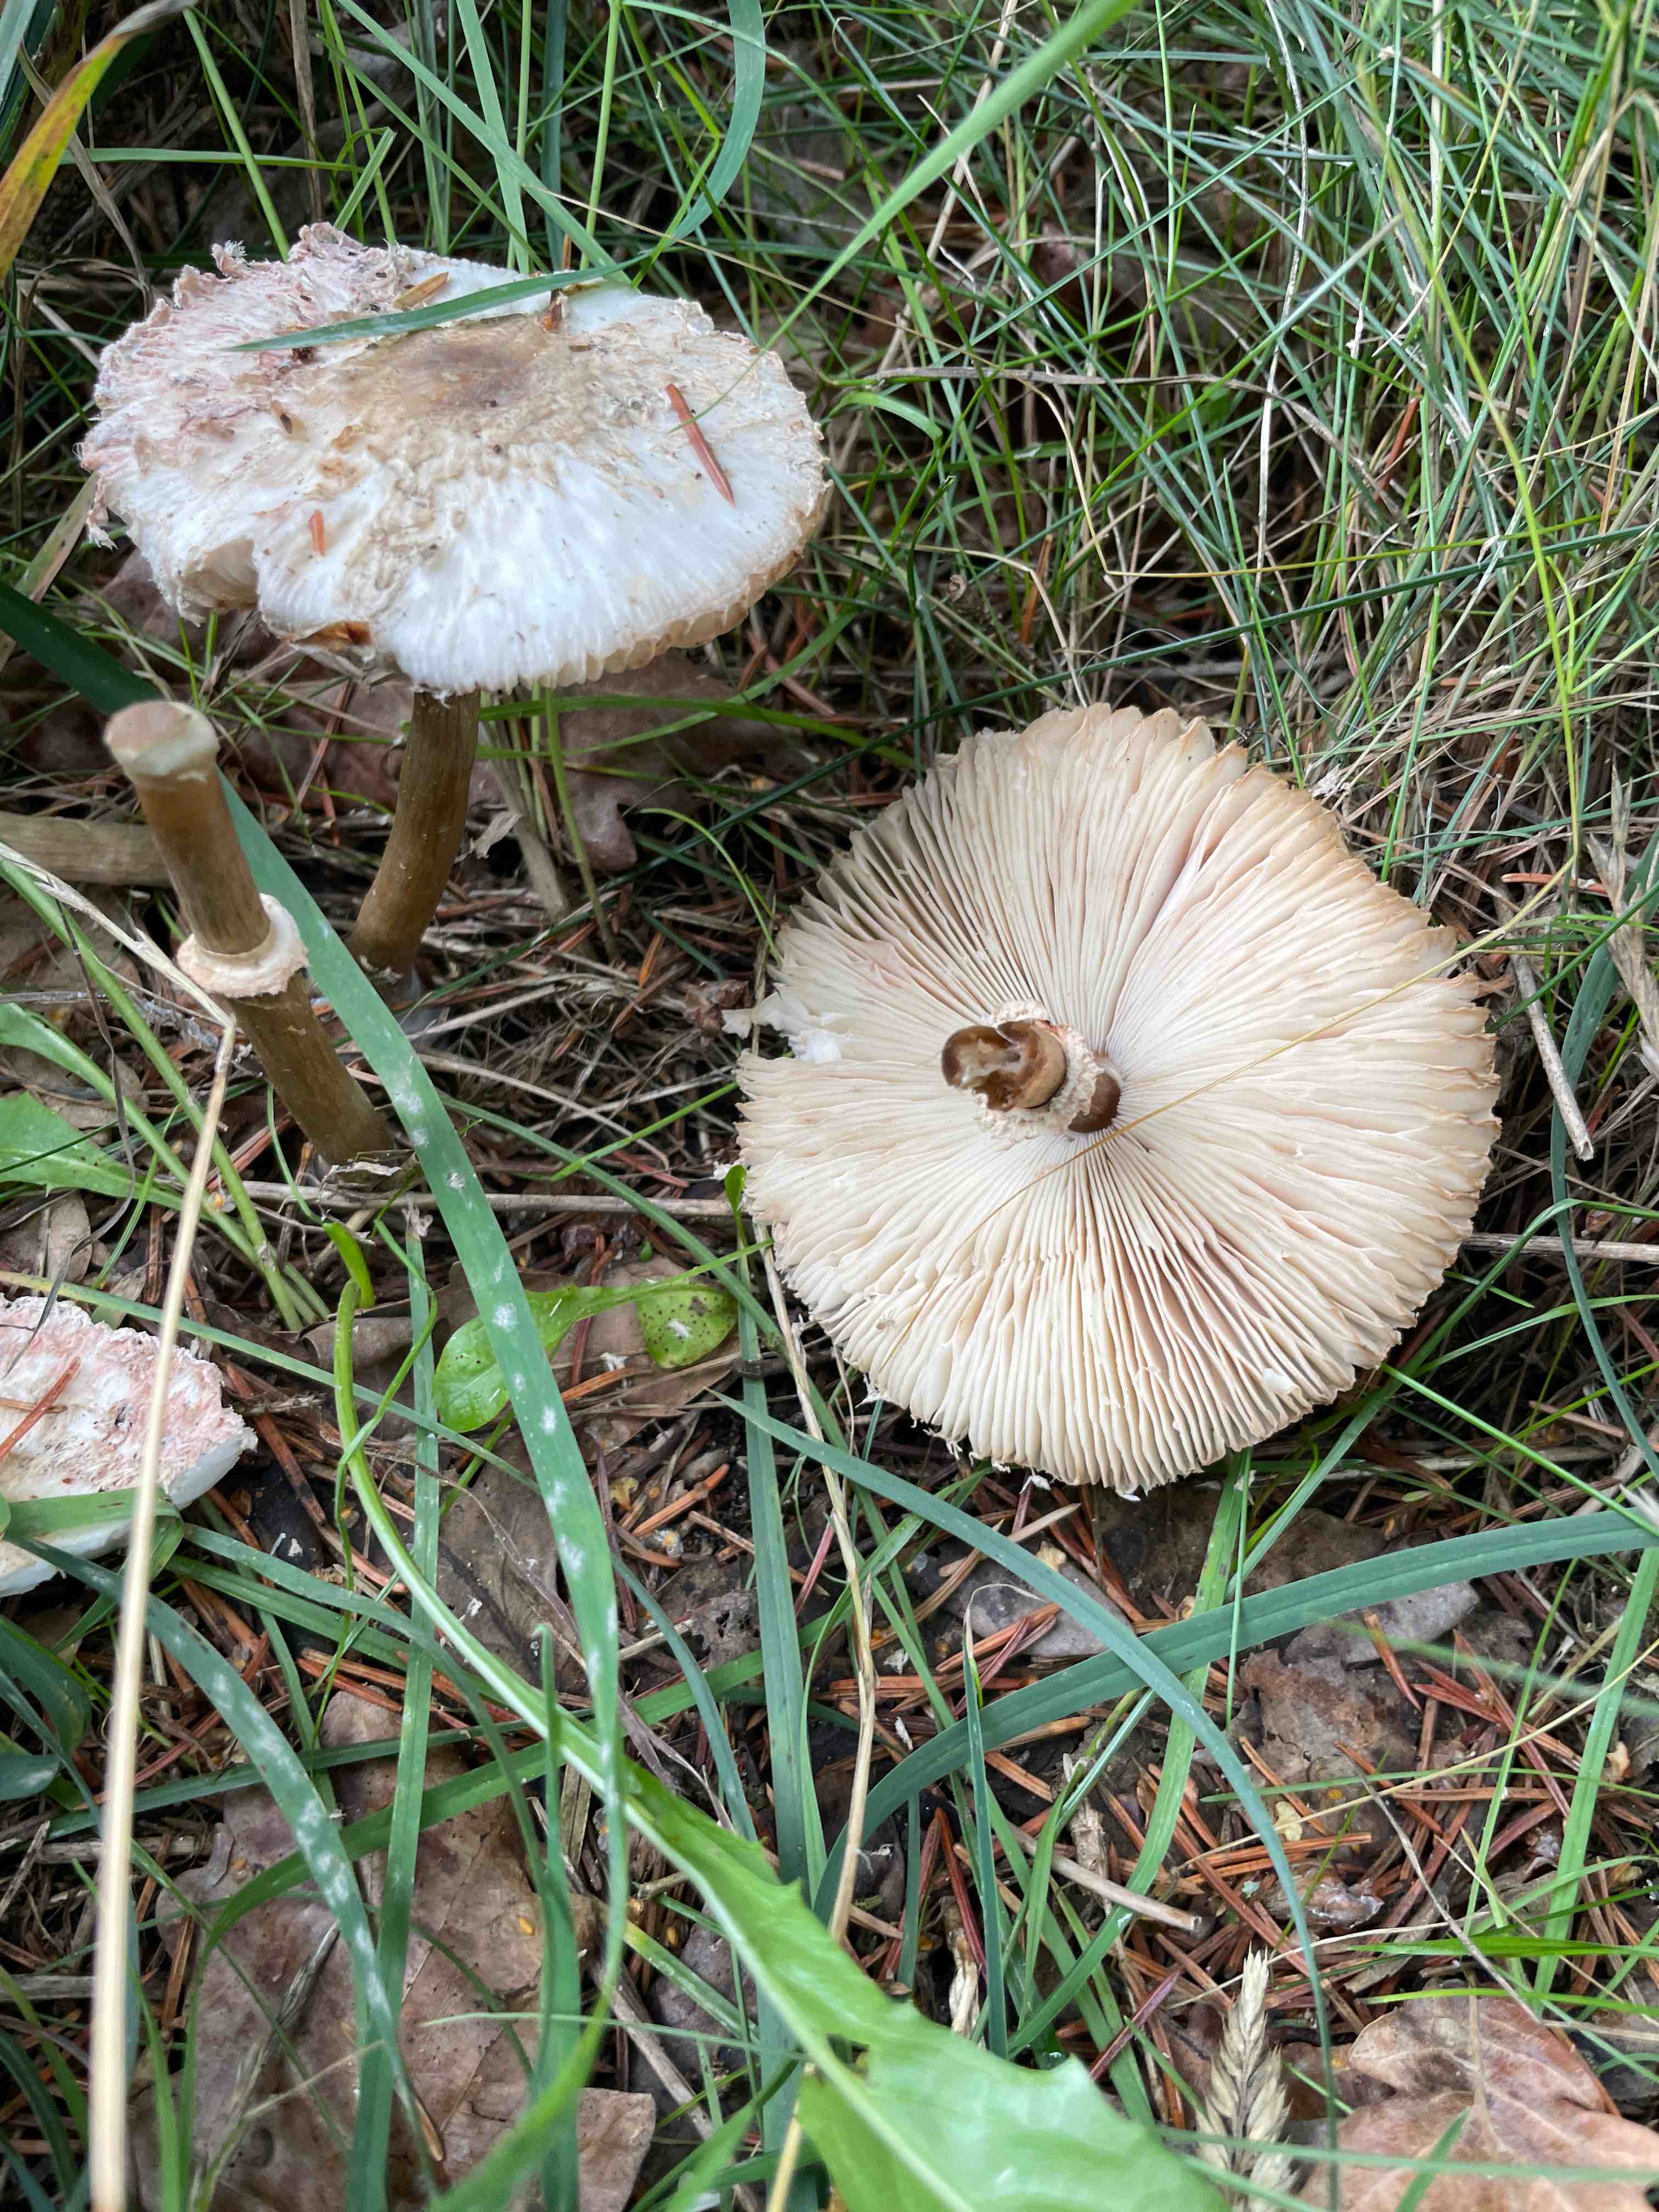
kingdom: Fungi
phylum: Basidiomycota
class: Agaricomycetes
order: Agaricales
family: Agaricaceae
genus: Chlorophyllum
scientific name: Chlorophyllum
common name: rabarberhat
